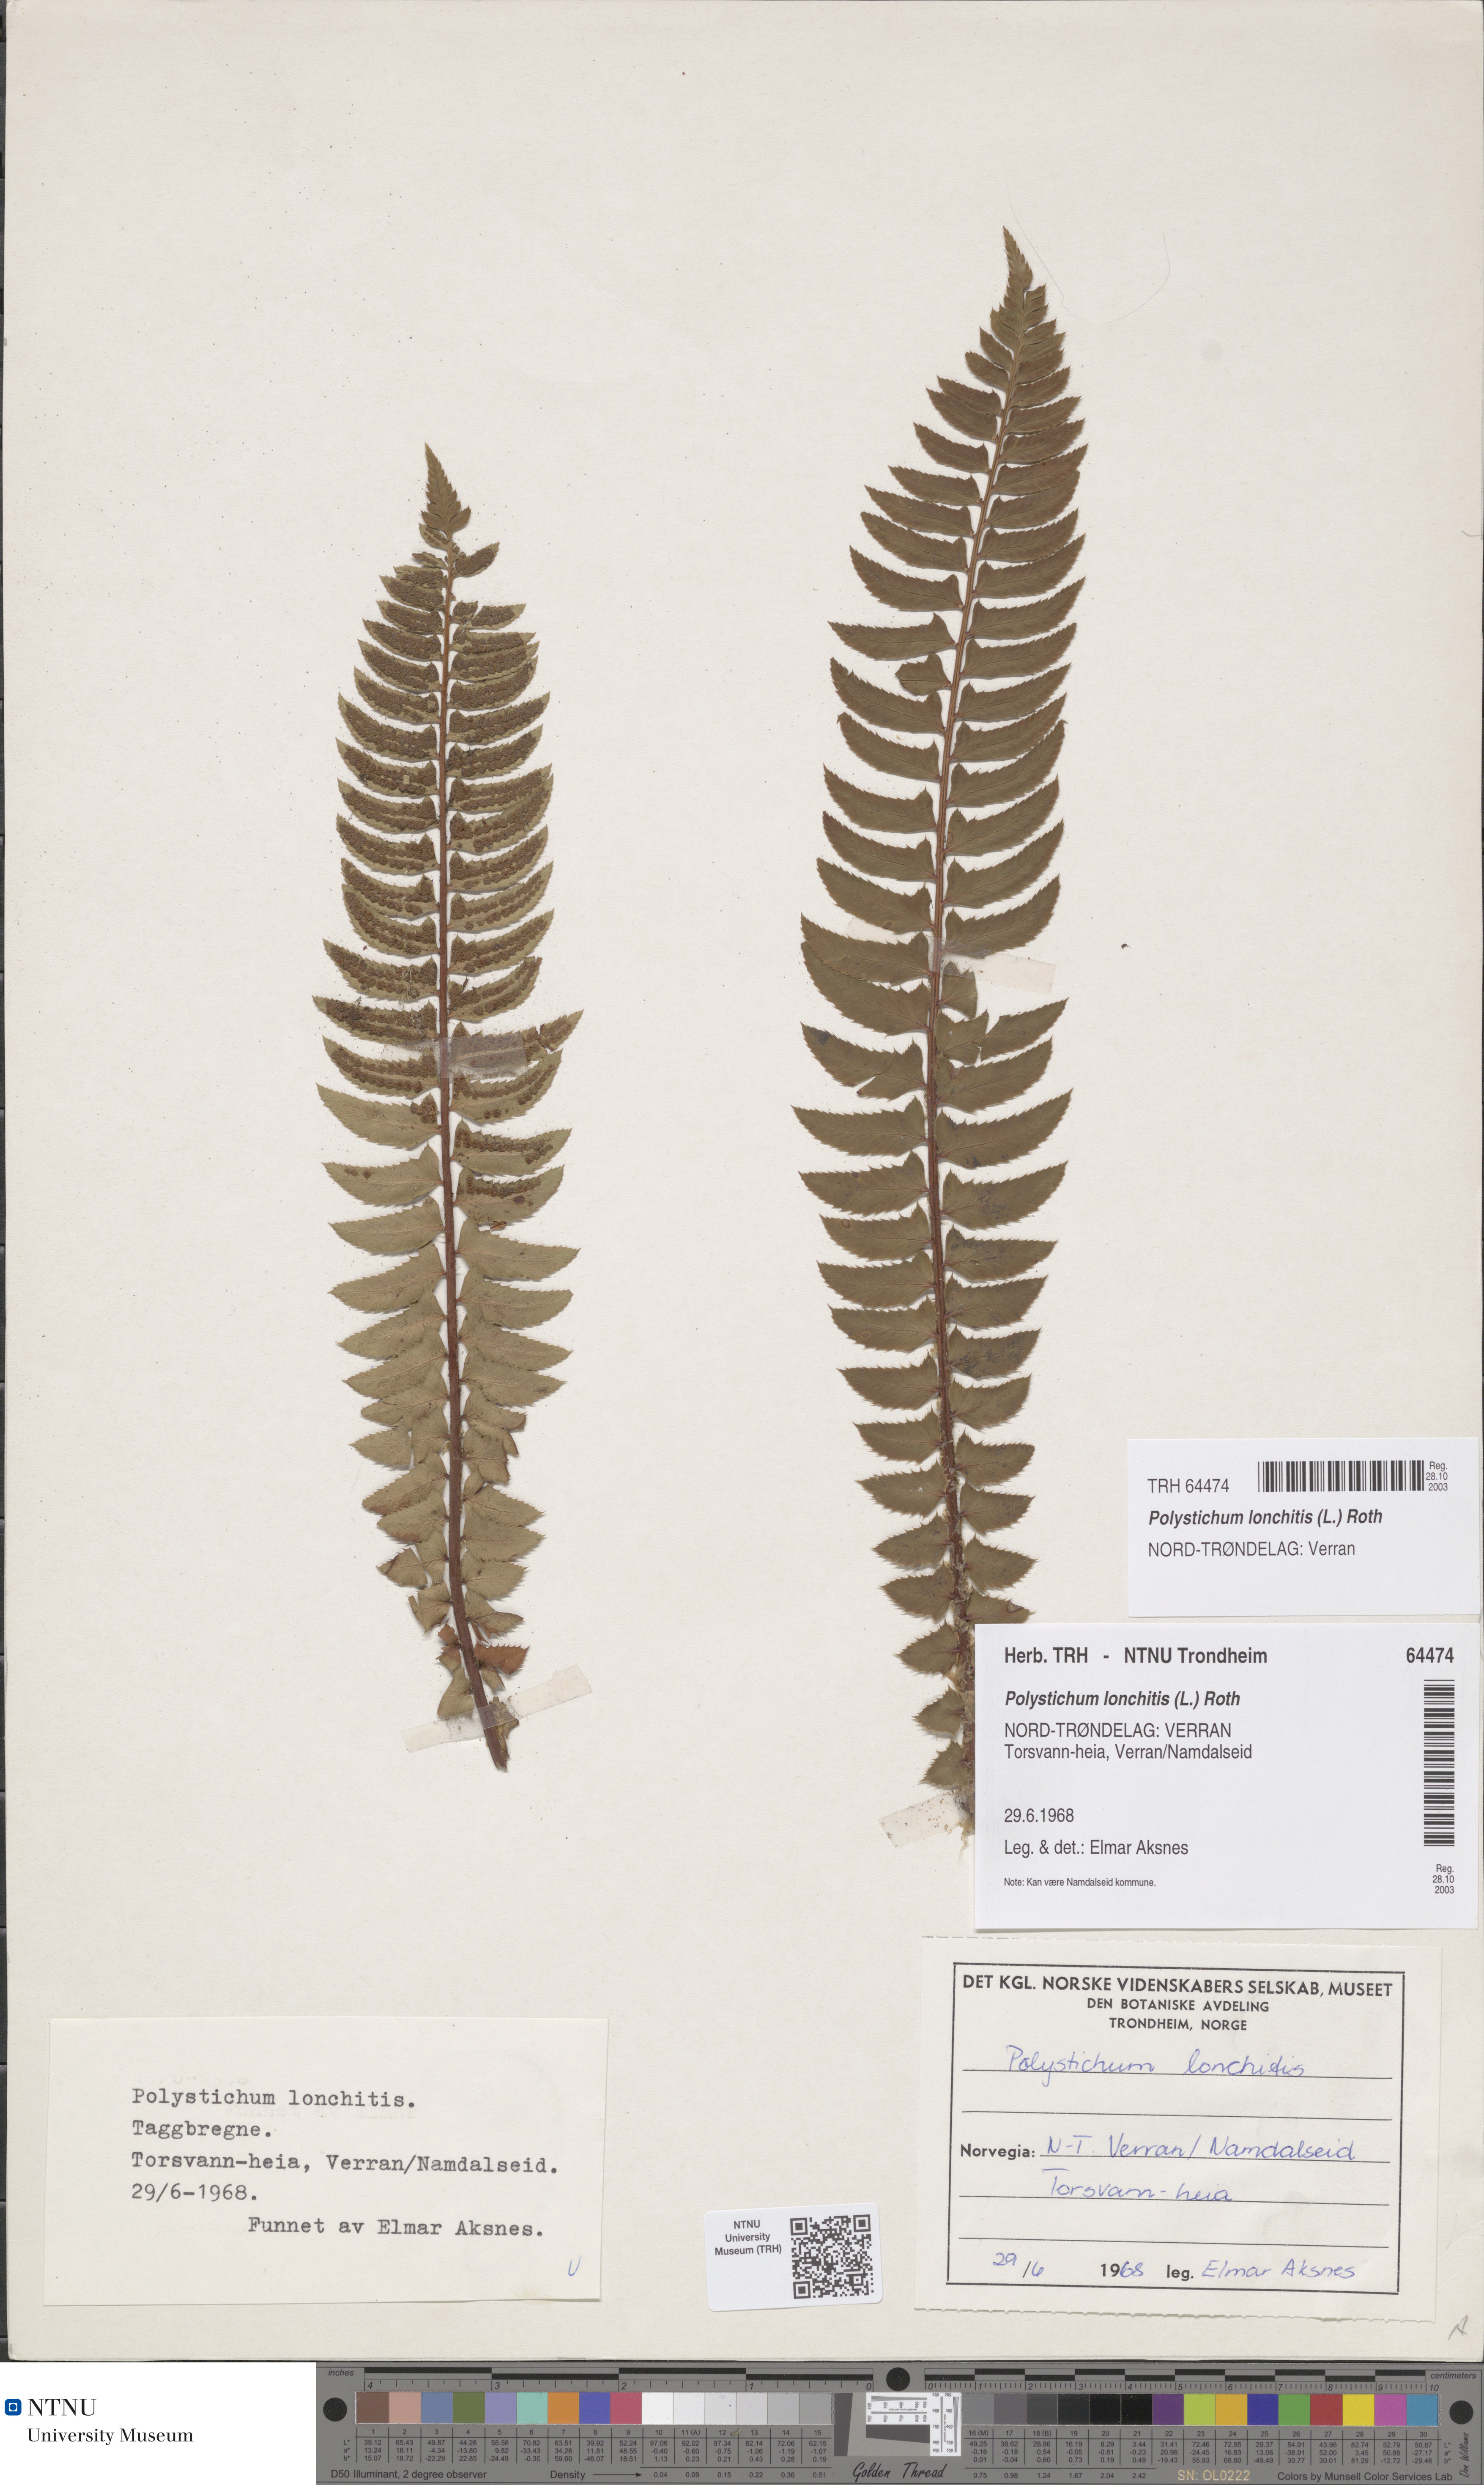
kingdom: Plantae
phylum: Tracheophyta
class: Polypodiopsida
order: Polypodiales
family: Dryopteridaceae
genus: Polystichum
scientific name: Polystichum lonchitis
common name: Holly fern
